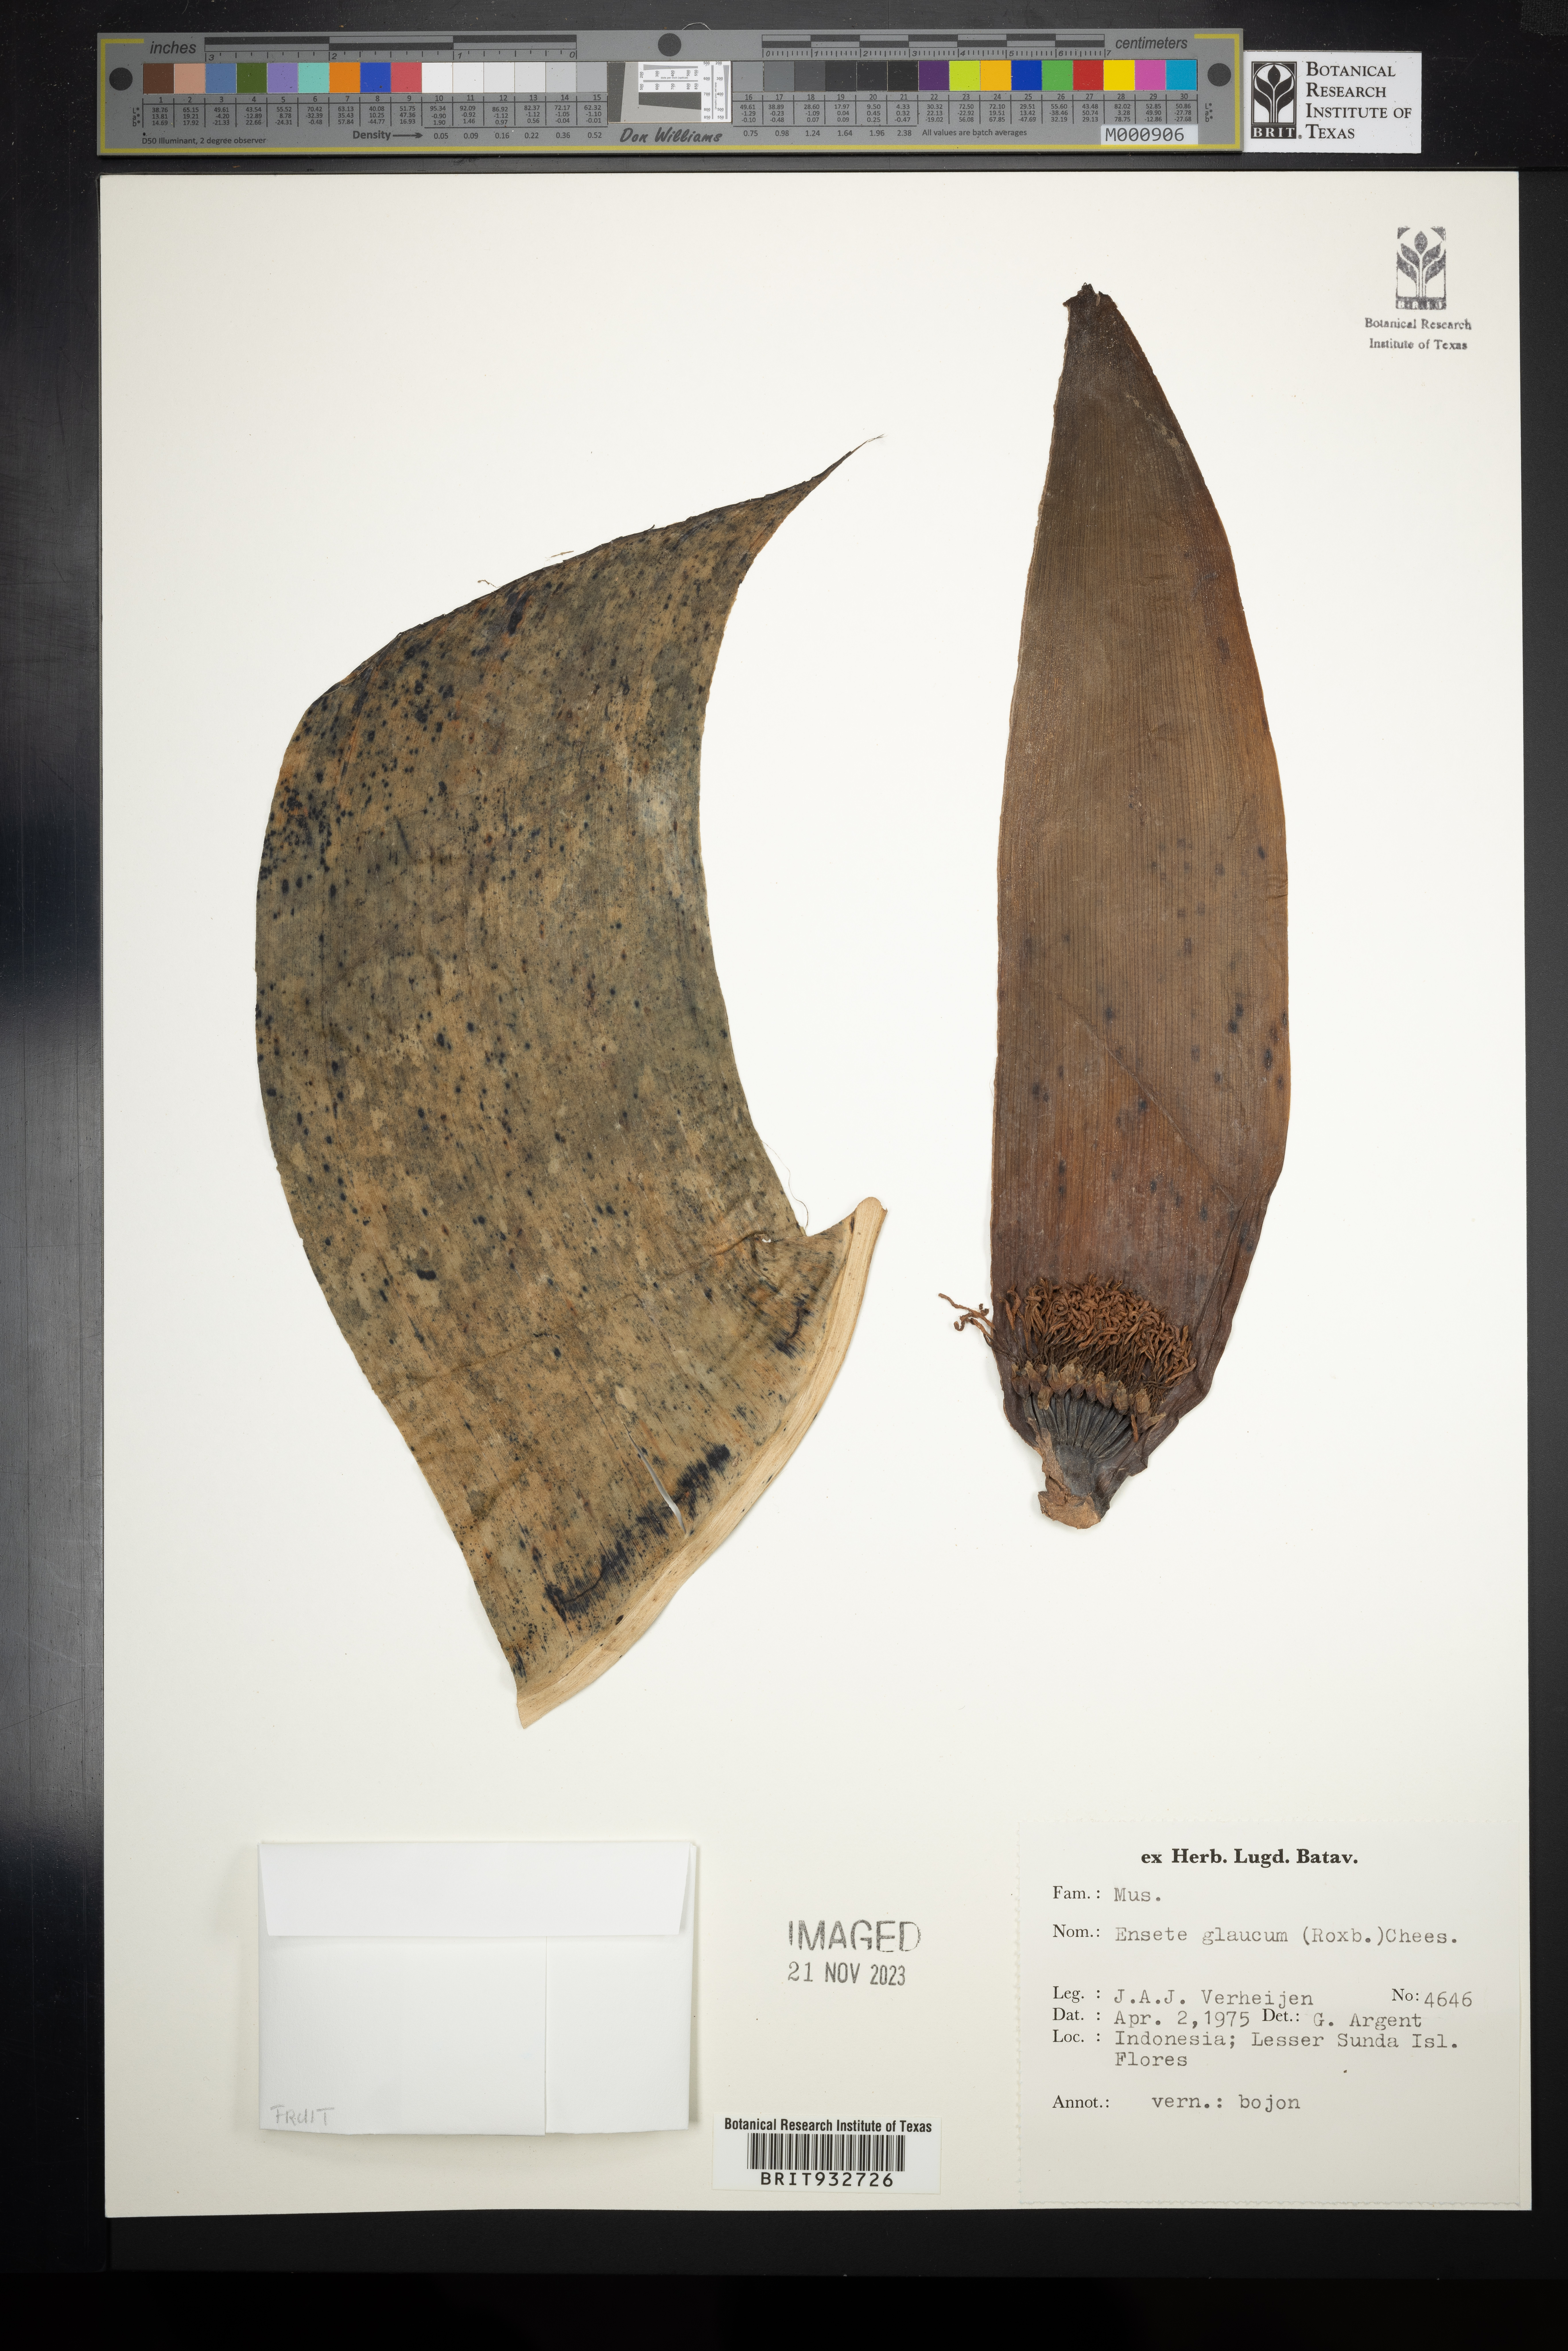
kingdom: Plantae
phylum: Tracheophyta
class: Liliopsida
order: Zingiberales
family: Musaceae
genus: Ensete
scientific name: Ensete
